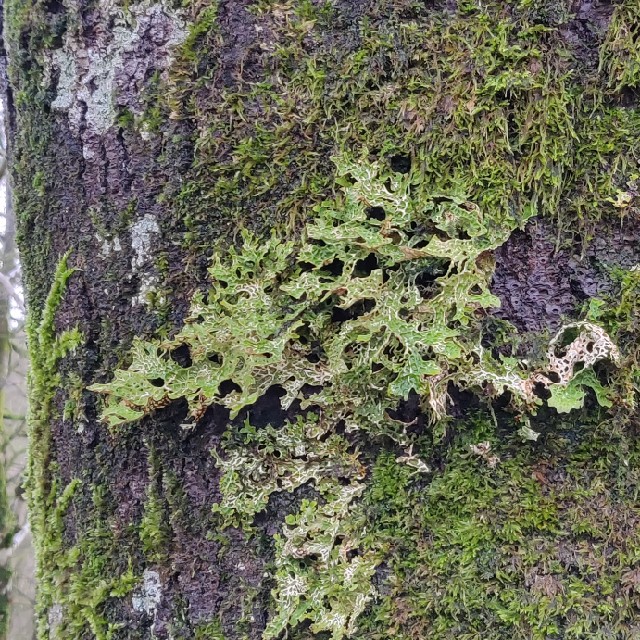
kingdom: Fungi
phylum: Ascomycota
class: Lecanoromycetes
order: Peltigerales
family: Lobariaceae
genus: Lobaria
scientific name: Lobaria pulmonaria
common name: almindelig lungelav
